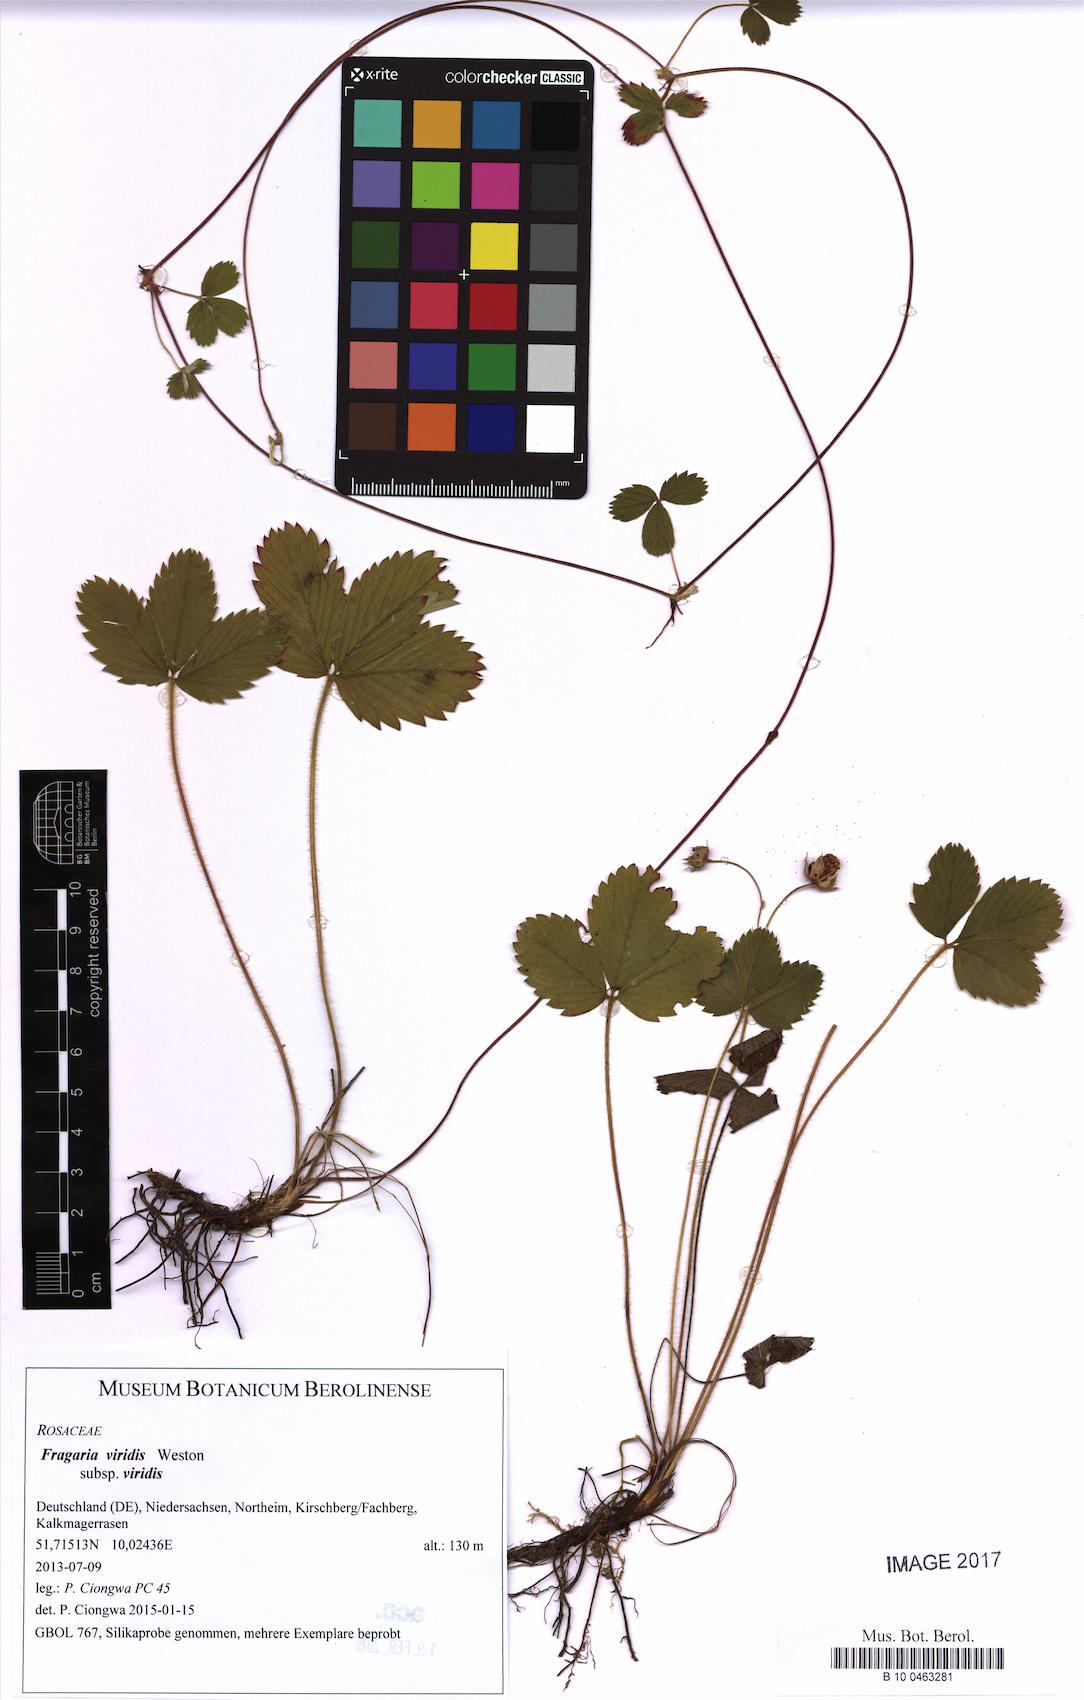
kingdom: Plantae
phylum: Tracheophyta
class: Magnoliopsida
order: Rosales
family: Rosaceae
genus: Fragaria
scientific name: Fragaria viridis
